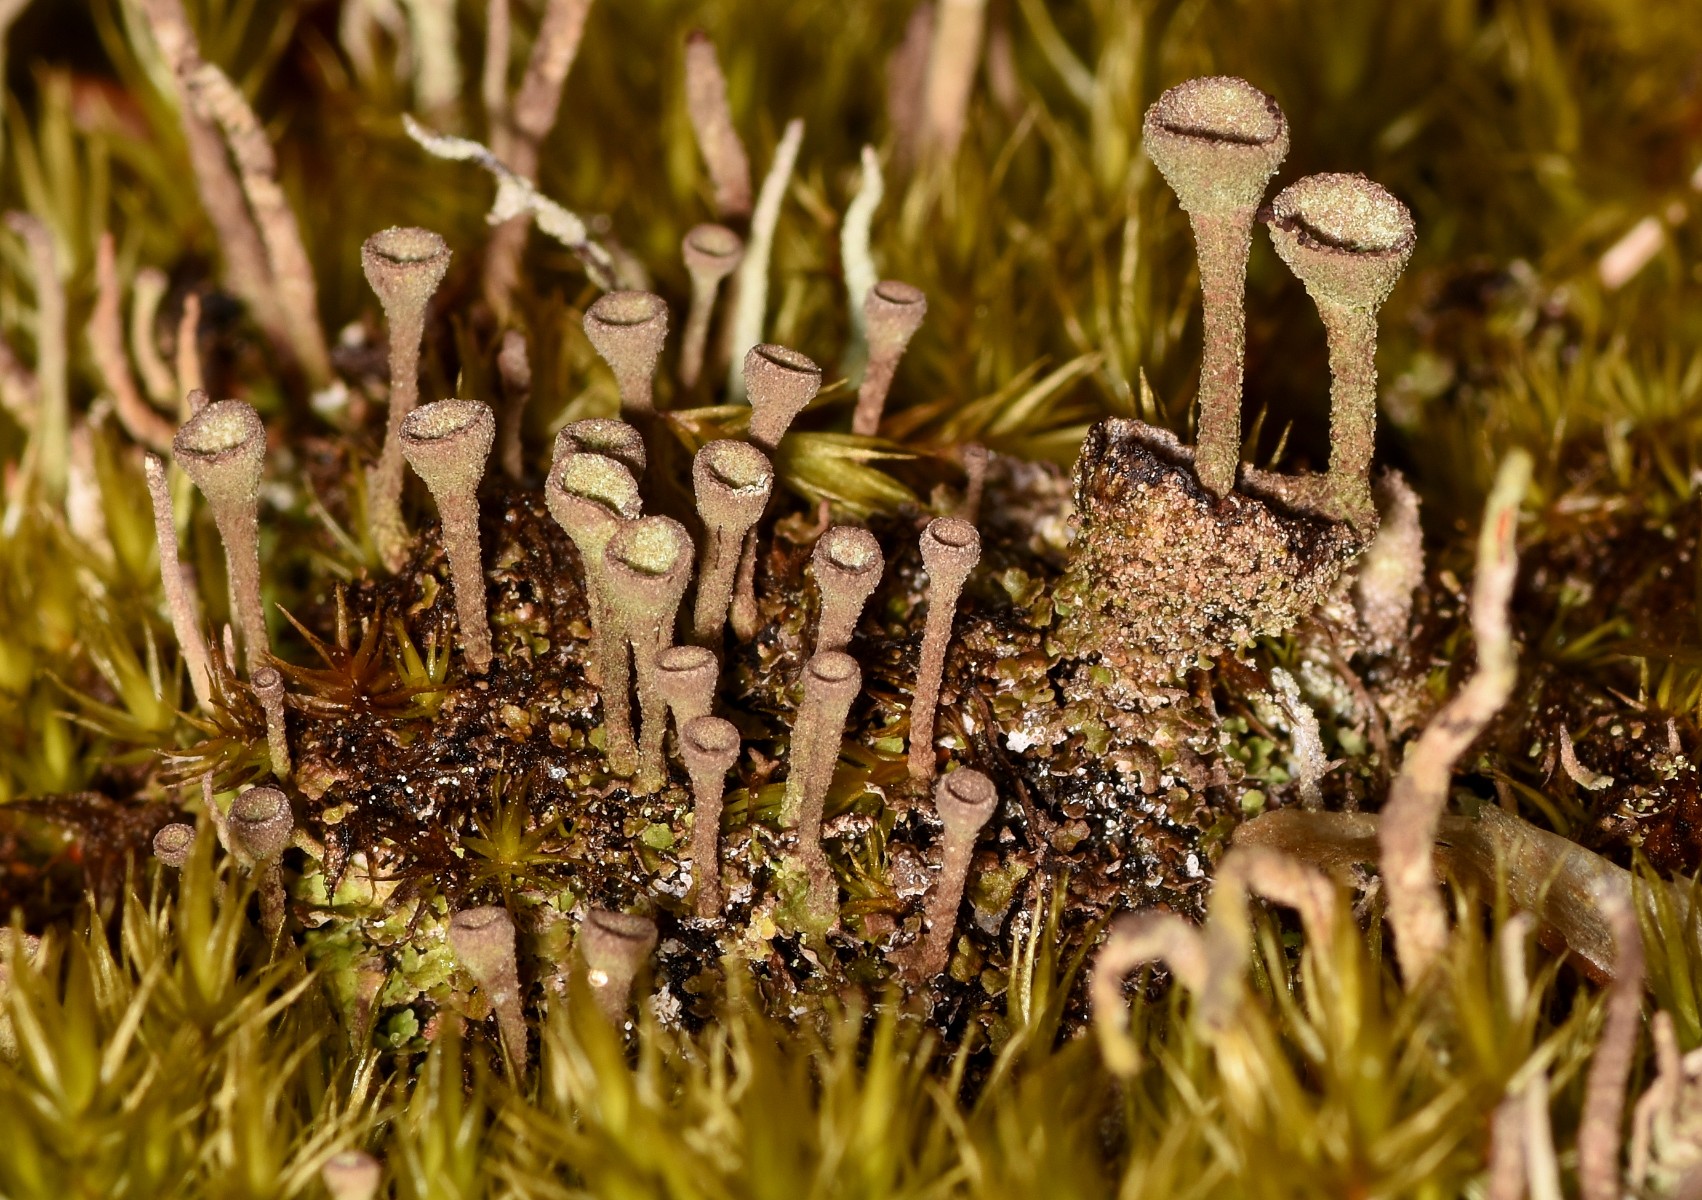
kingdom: Fungi
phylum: Ascomycota
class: Lecanoromycetes
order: Lecanorales
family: Cladoniaceae
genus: Cladonia
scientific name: Cladonia
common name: brungrøn bægerlav
